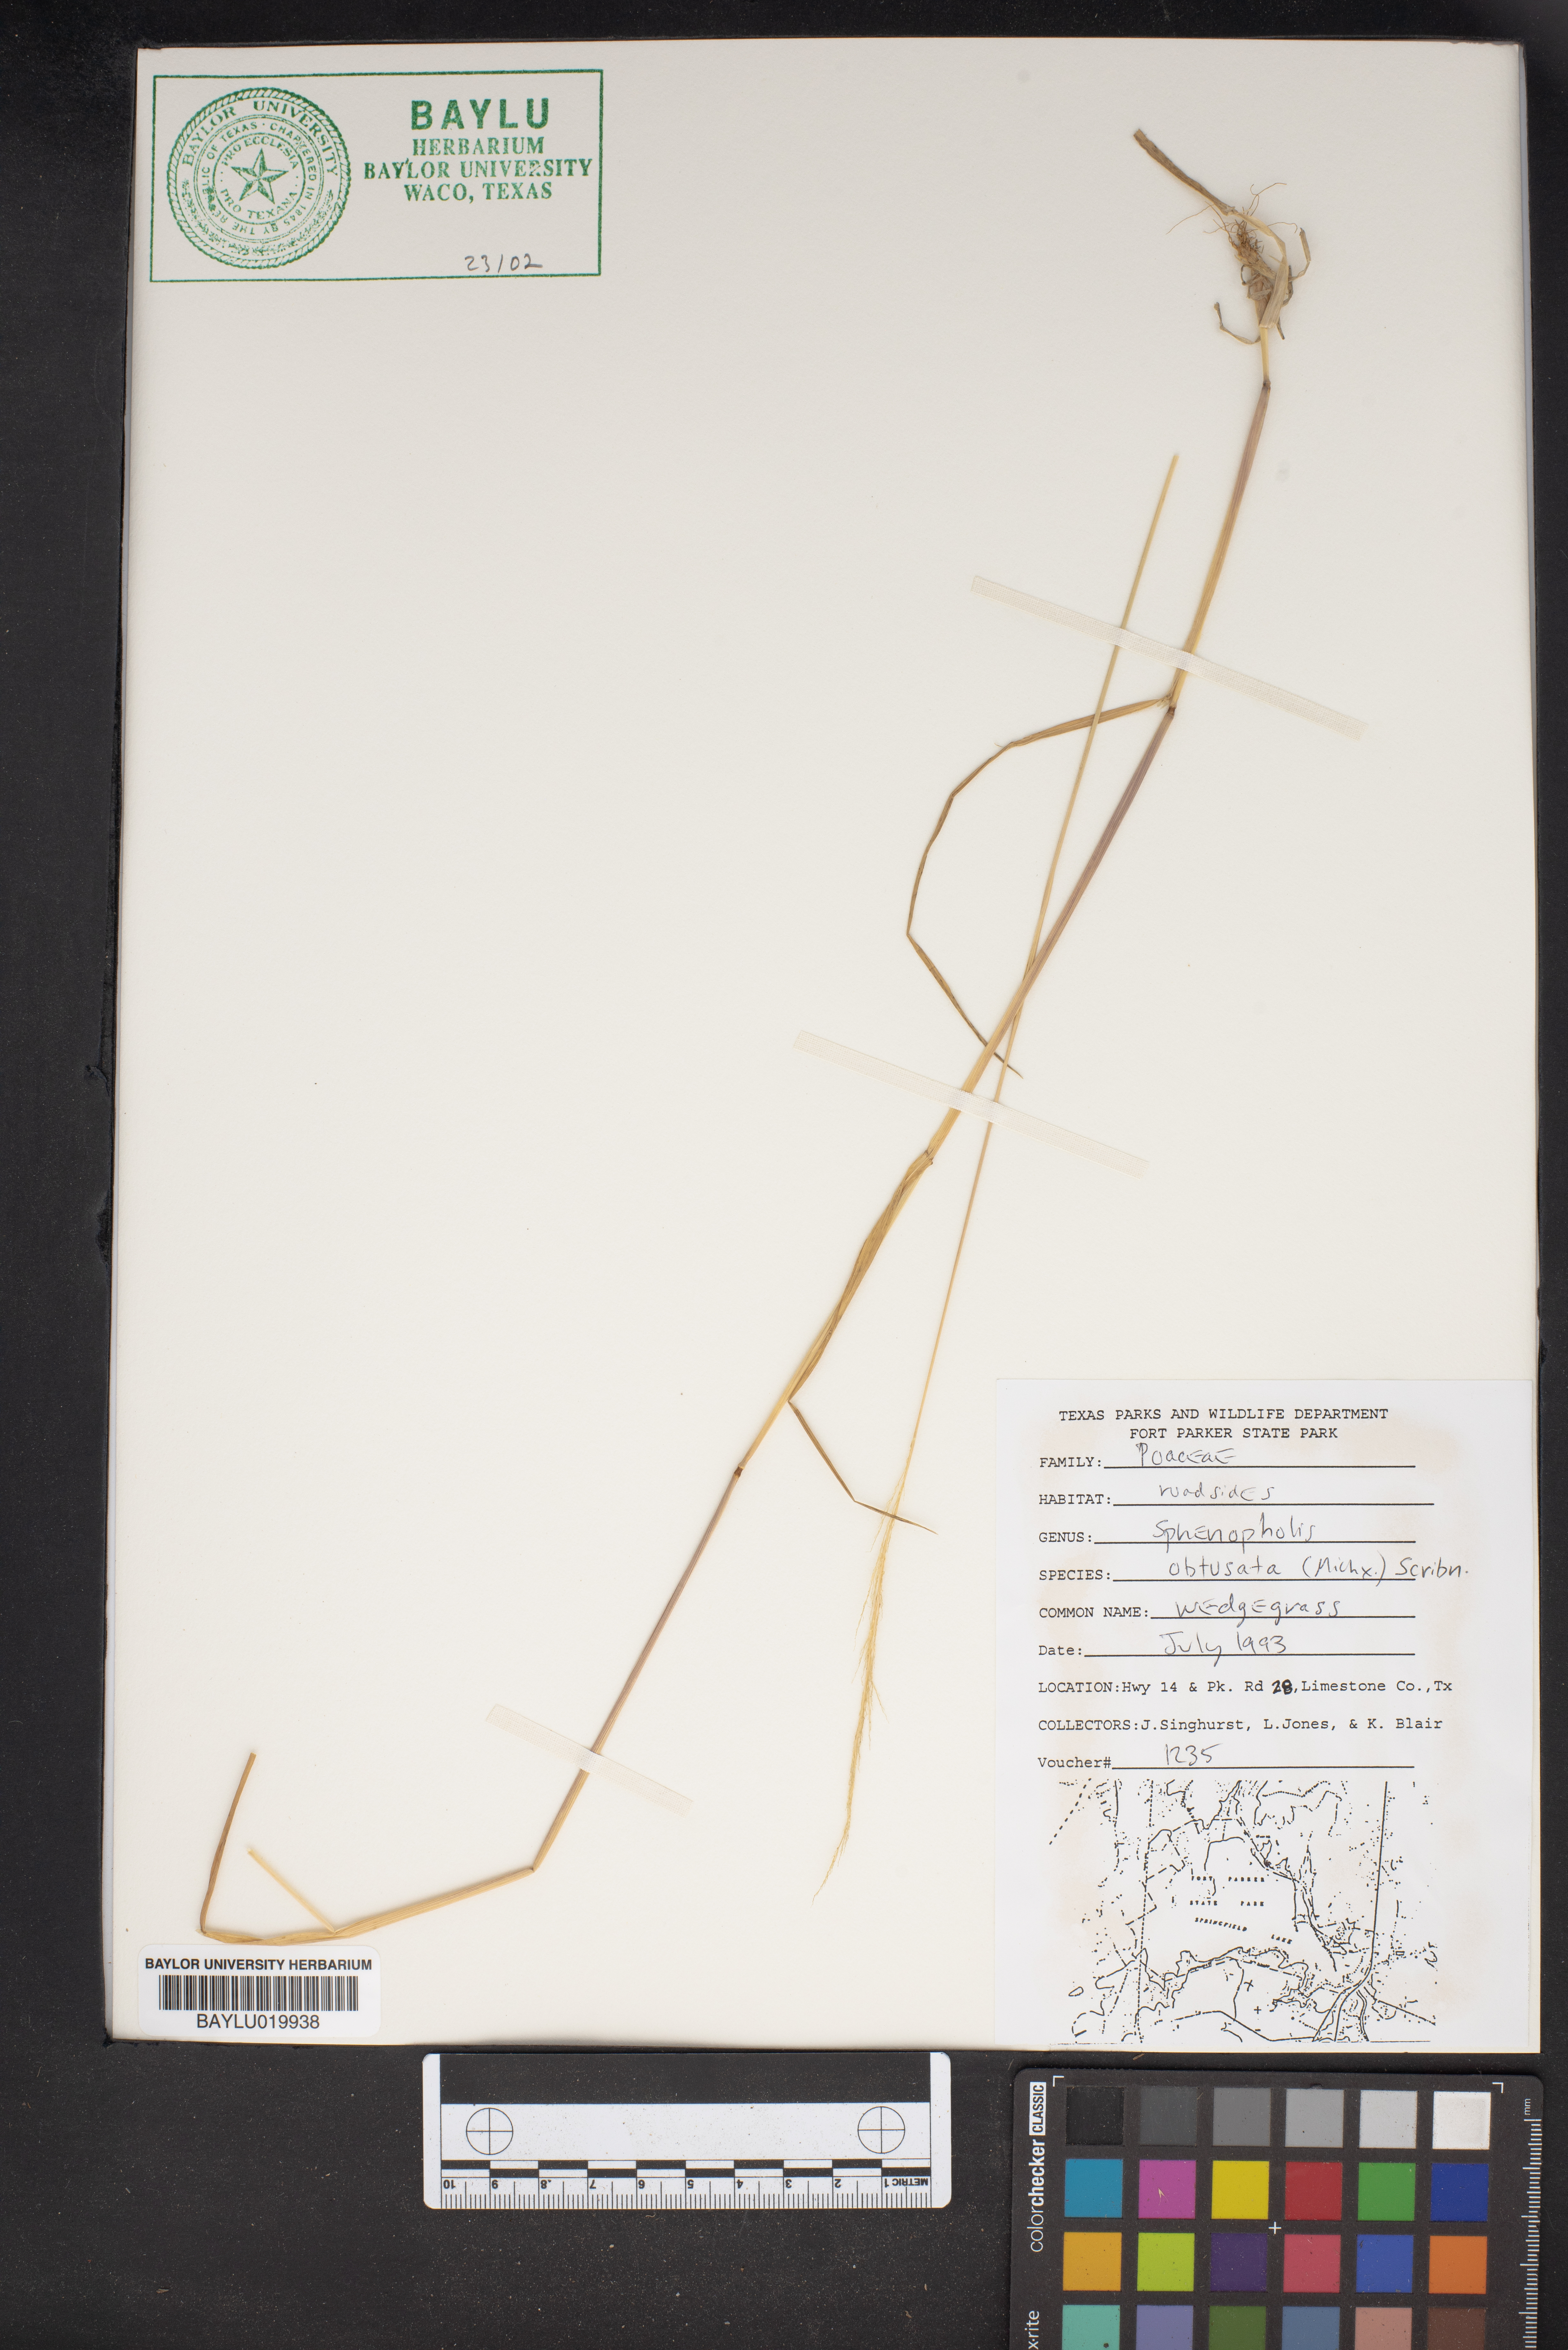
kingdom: Plantae
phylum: Tracheophyta
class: Liliopsida
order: Poales
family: Poaceae
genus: Sphenopholis
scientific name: Sphenopholis obtusata
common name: Prairie grass
